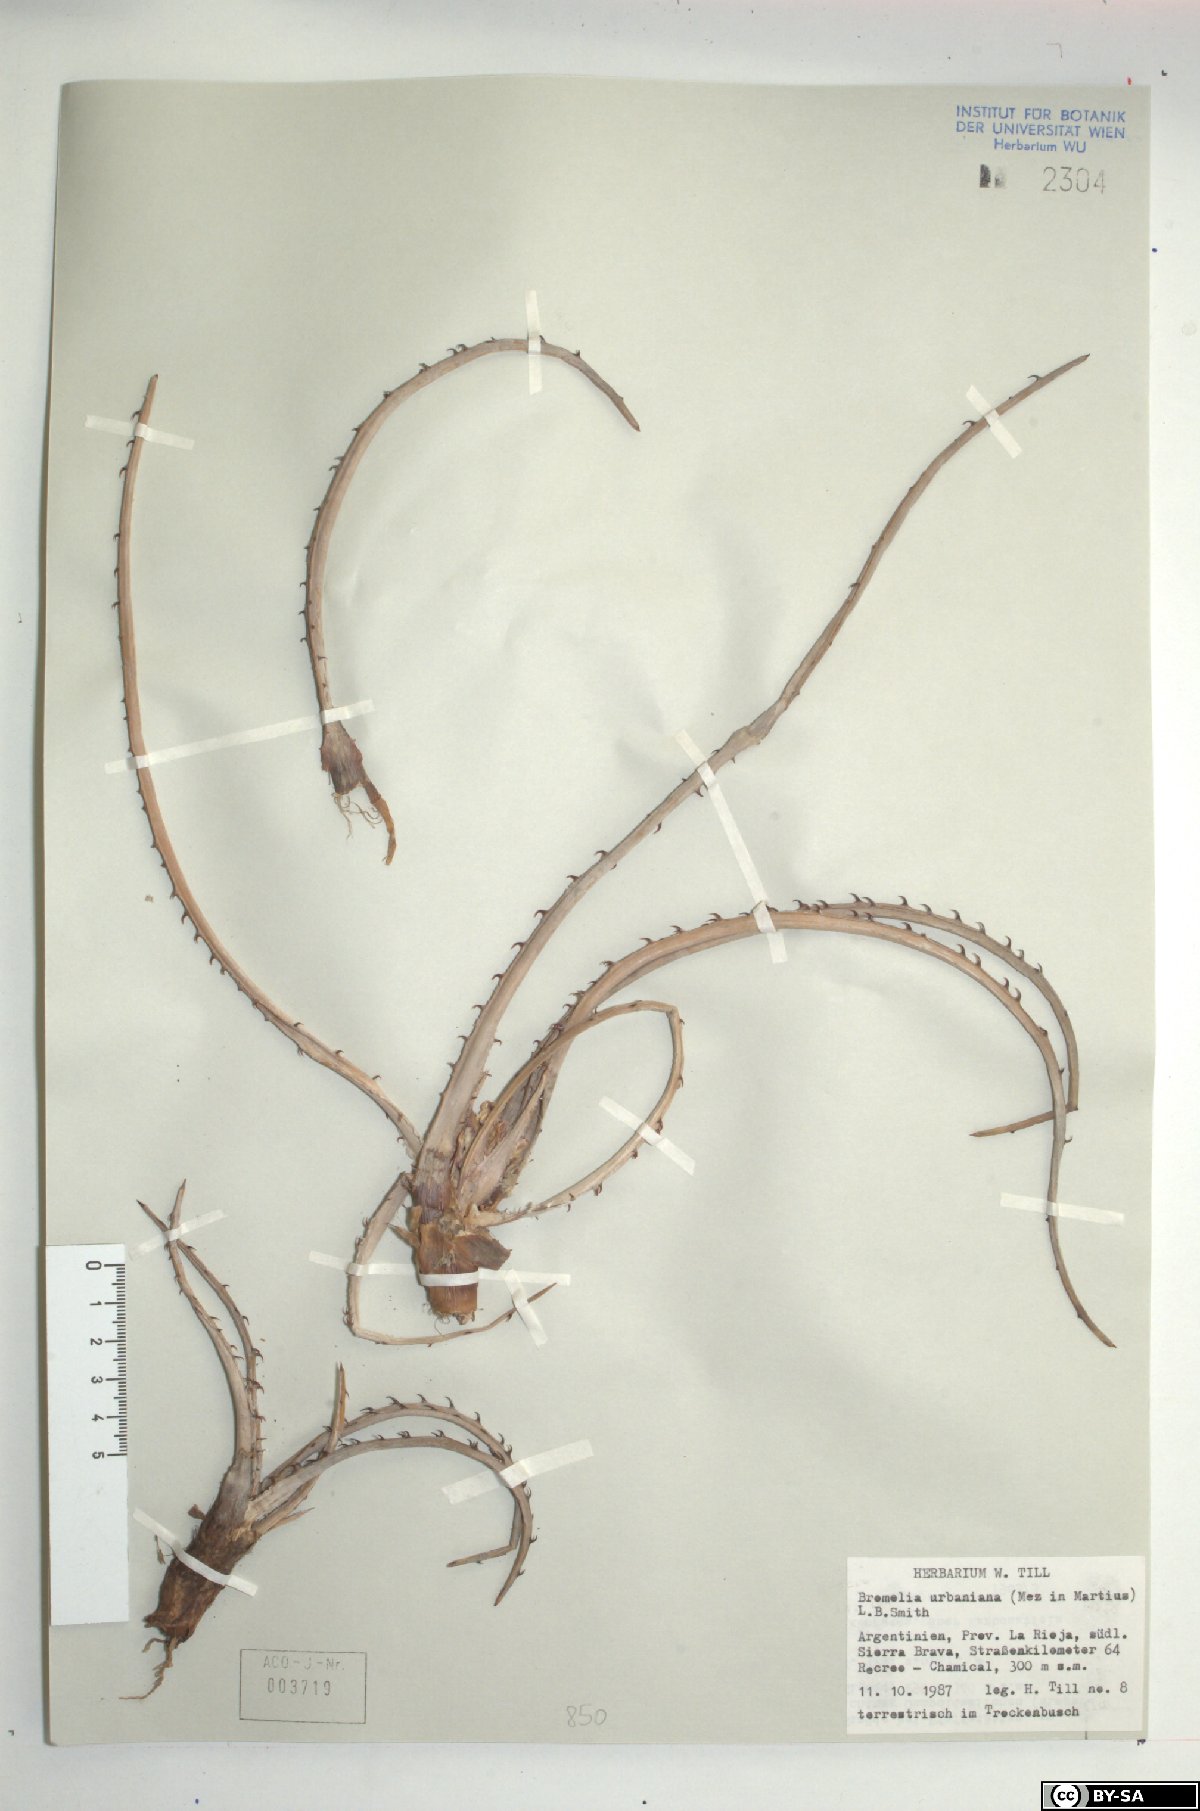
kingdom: Plantae
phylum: Tracheophyta
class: Liliopsida
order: Poales
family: Bromeliaceae
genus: Deinacanthon
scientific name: Deinacanthon urbanianum
